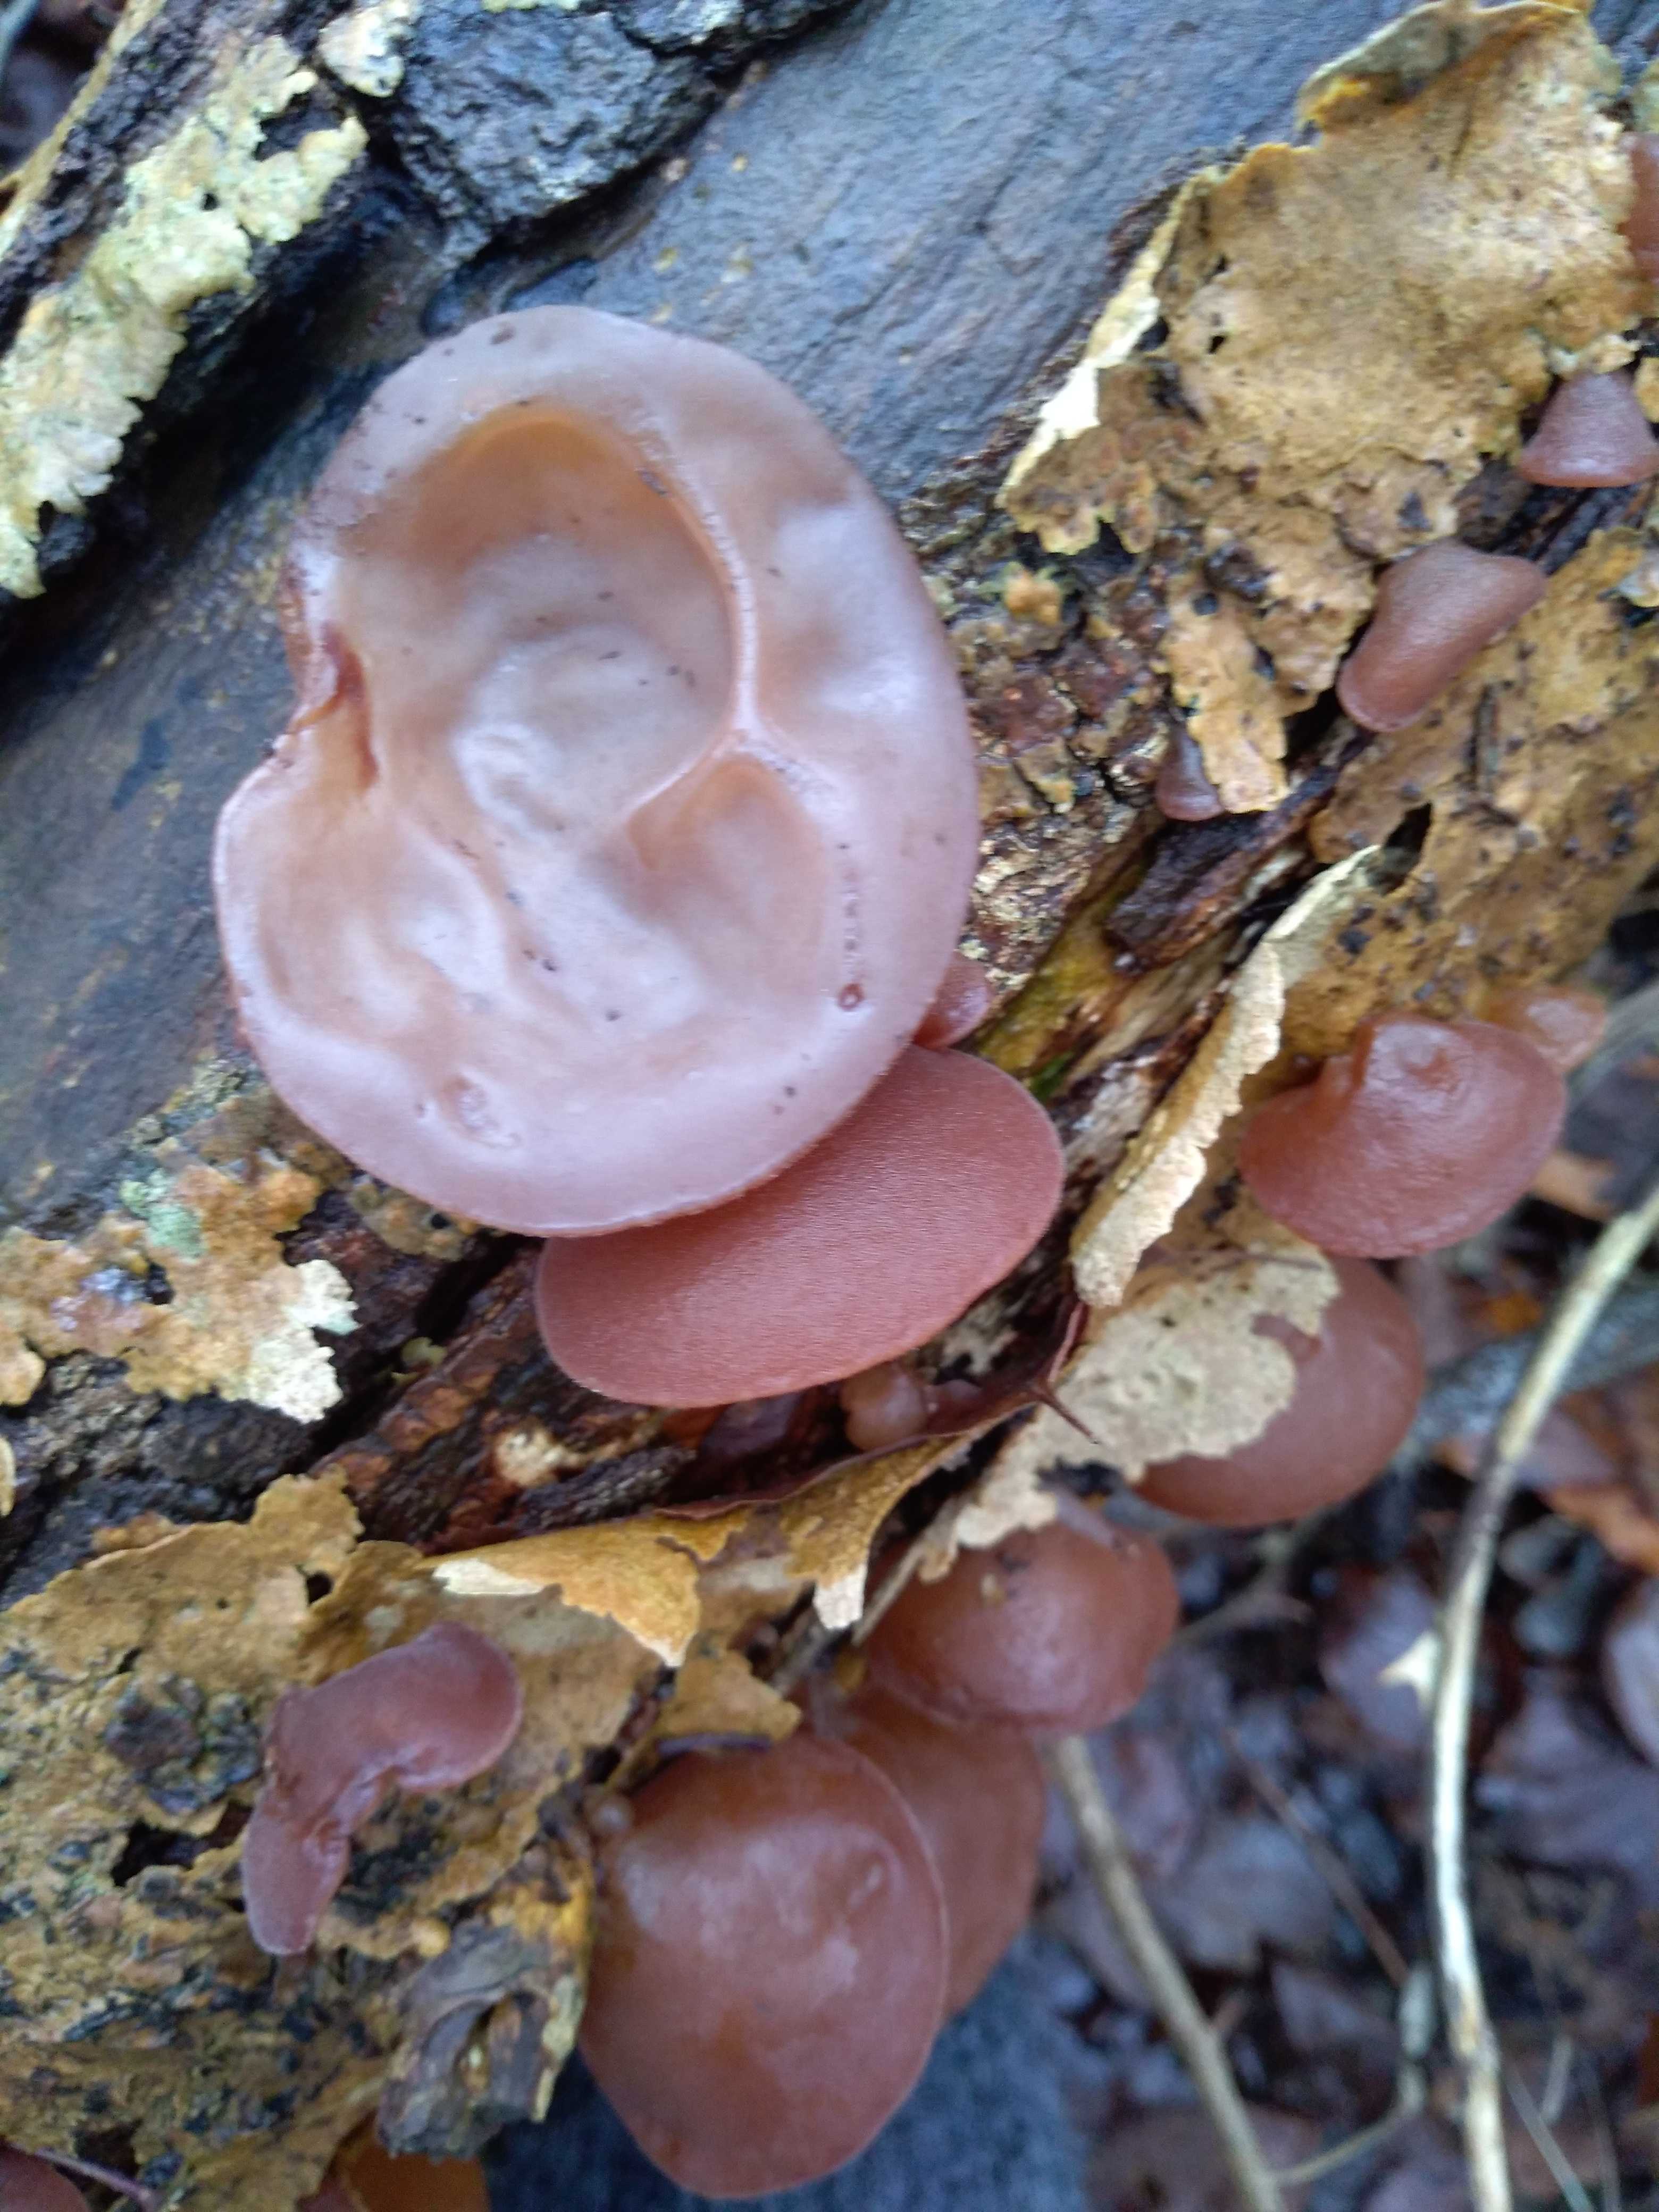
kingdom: Fungi
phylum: Basidiomycota
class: Agaricomycetes
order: Auriculariales
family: Auriculariaceae
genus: Auricularia
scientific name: Auricularia auricula-judae
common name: almindelig judasøre
